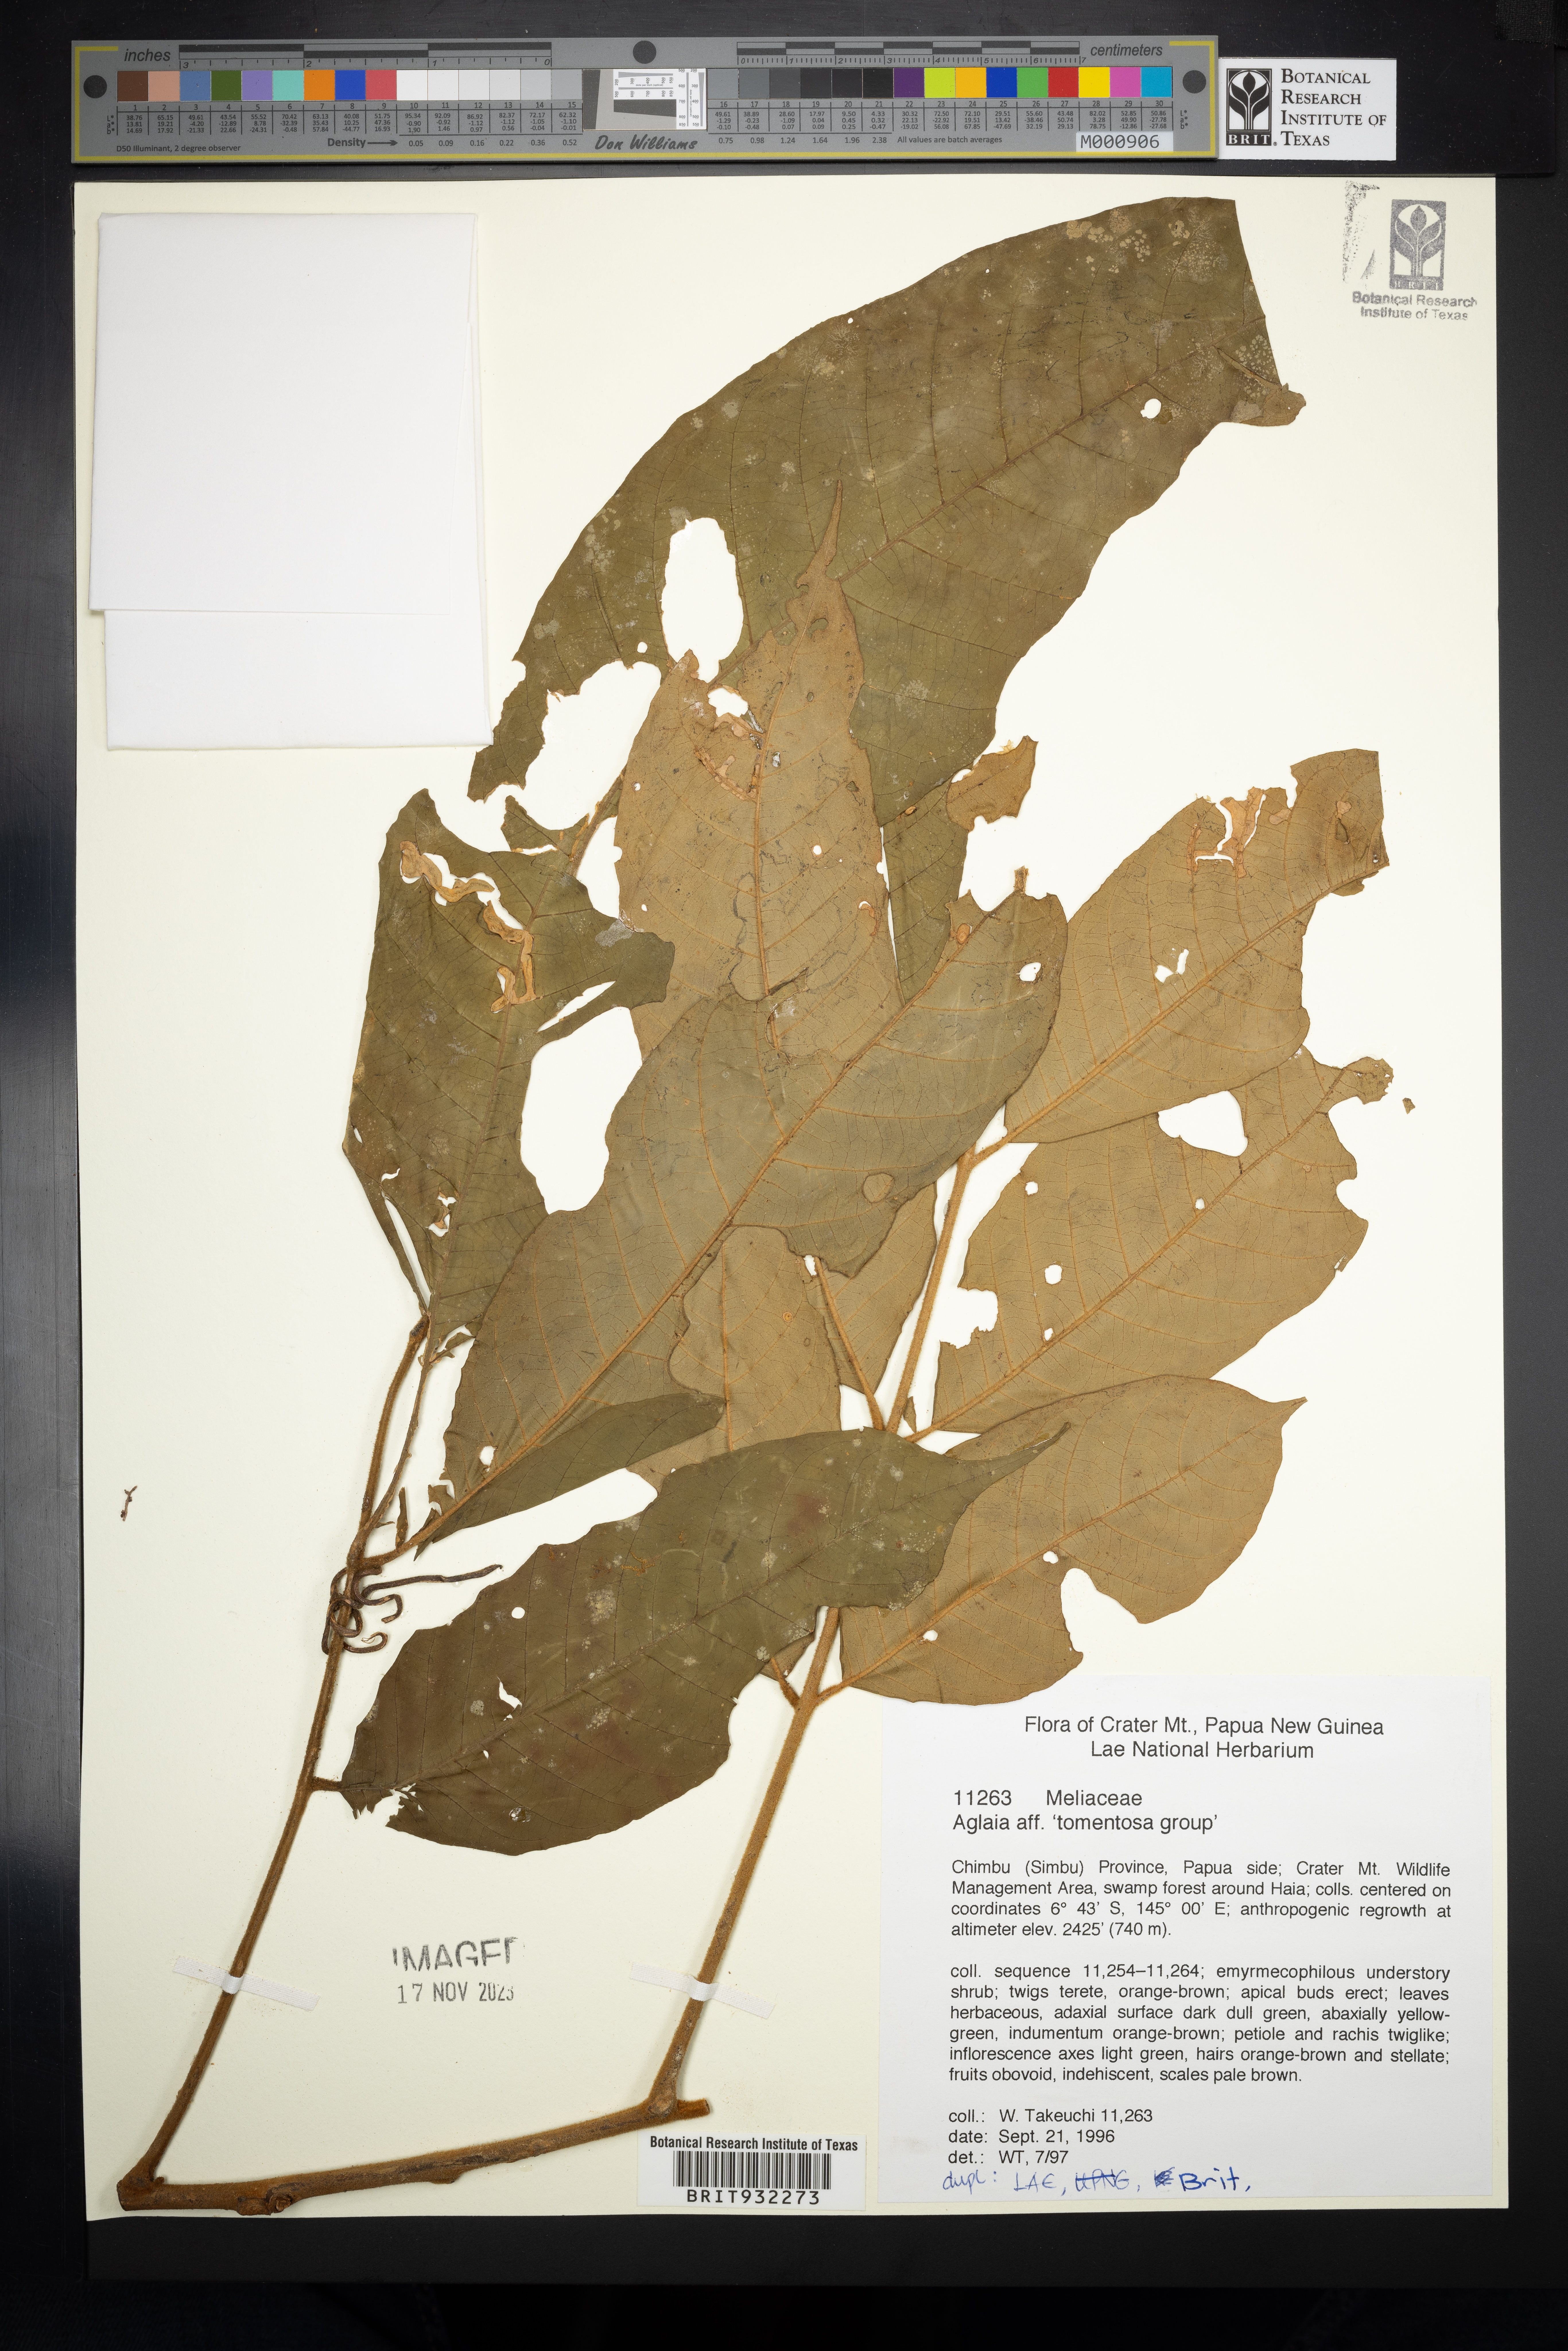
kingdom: Plantae
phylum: Tracheophyta
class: Magnoliopsida
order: Sapindales
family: Meliaceae
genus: Aglaia
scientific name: Aglaia
